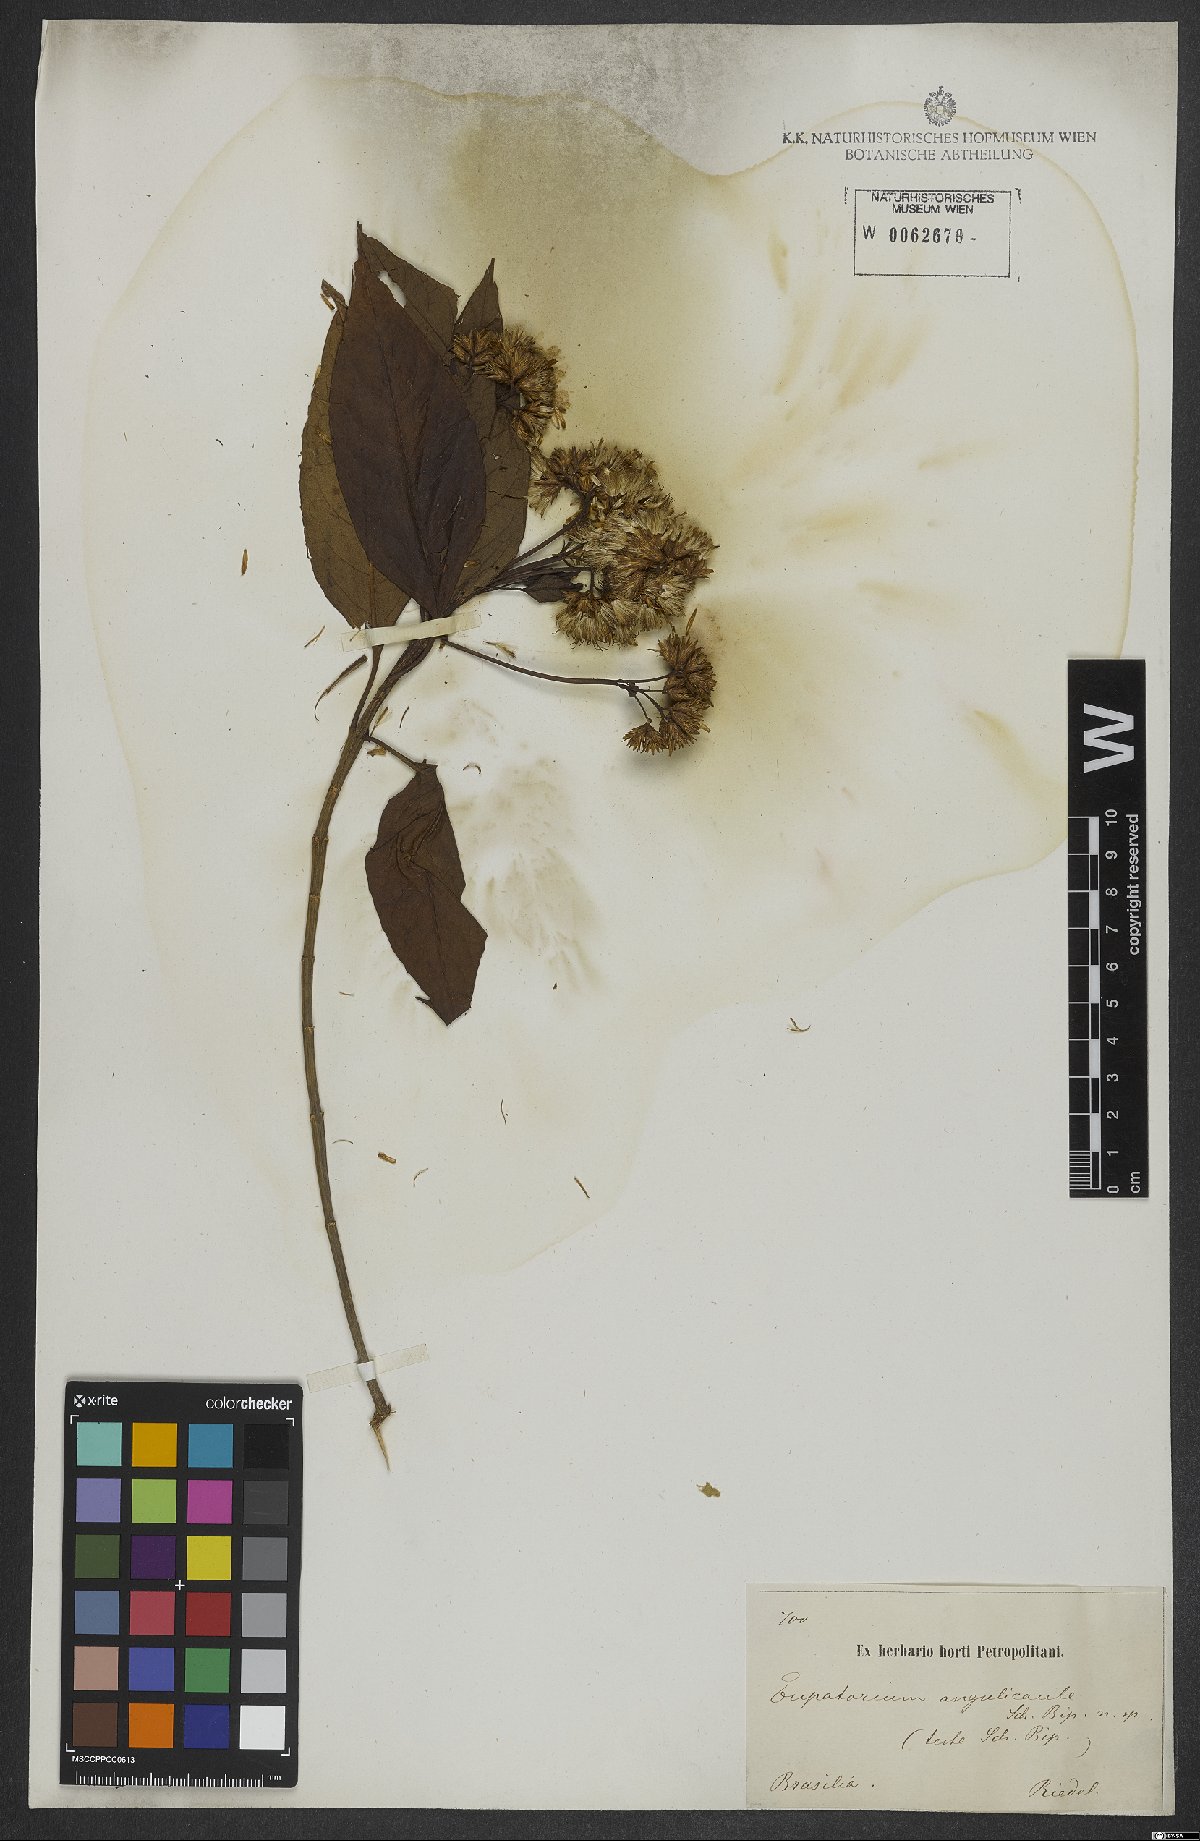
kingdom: Plantae
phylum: Tracheophyta
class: Magnoliopsida
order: Asterales
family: Asteraceae
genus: Austrocritonia
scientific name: Austrocritonia angulicaulis
